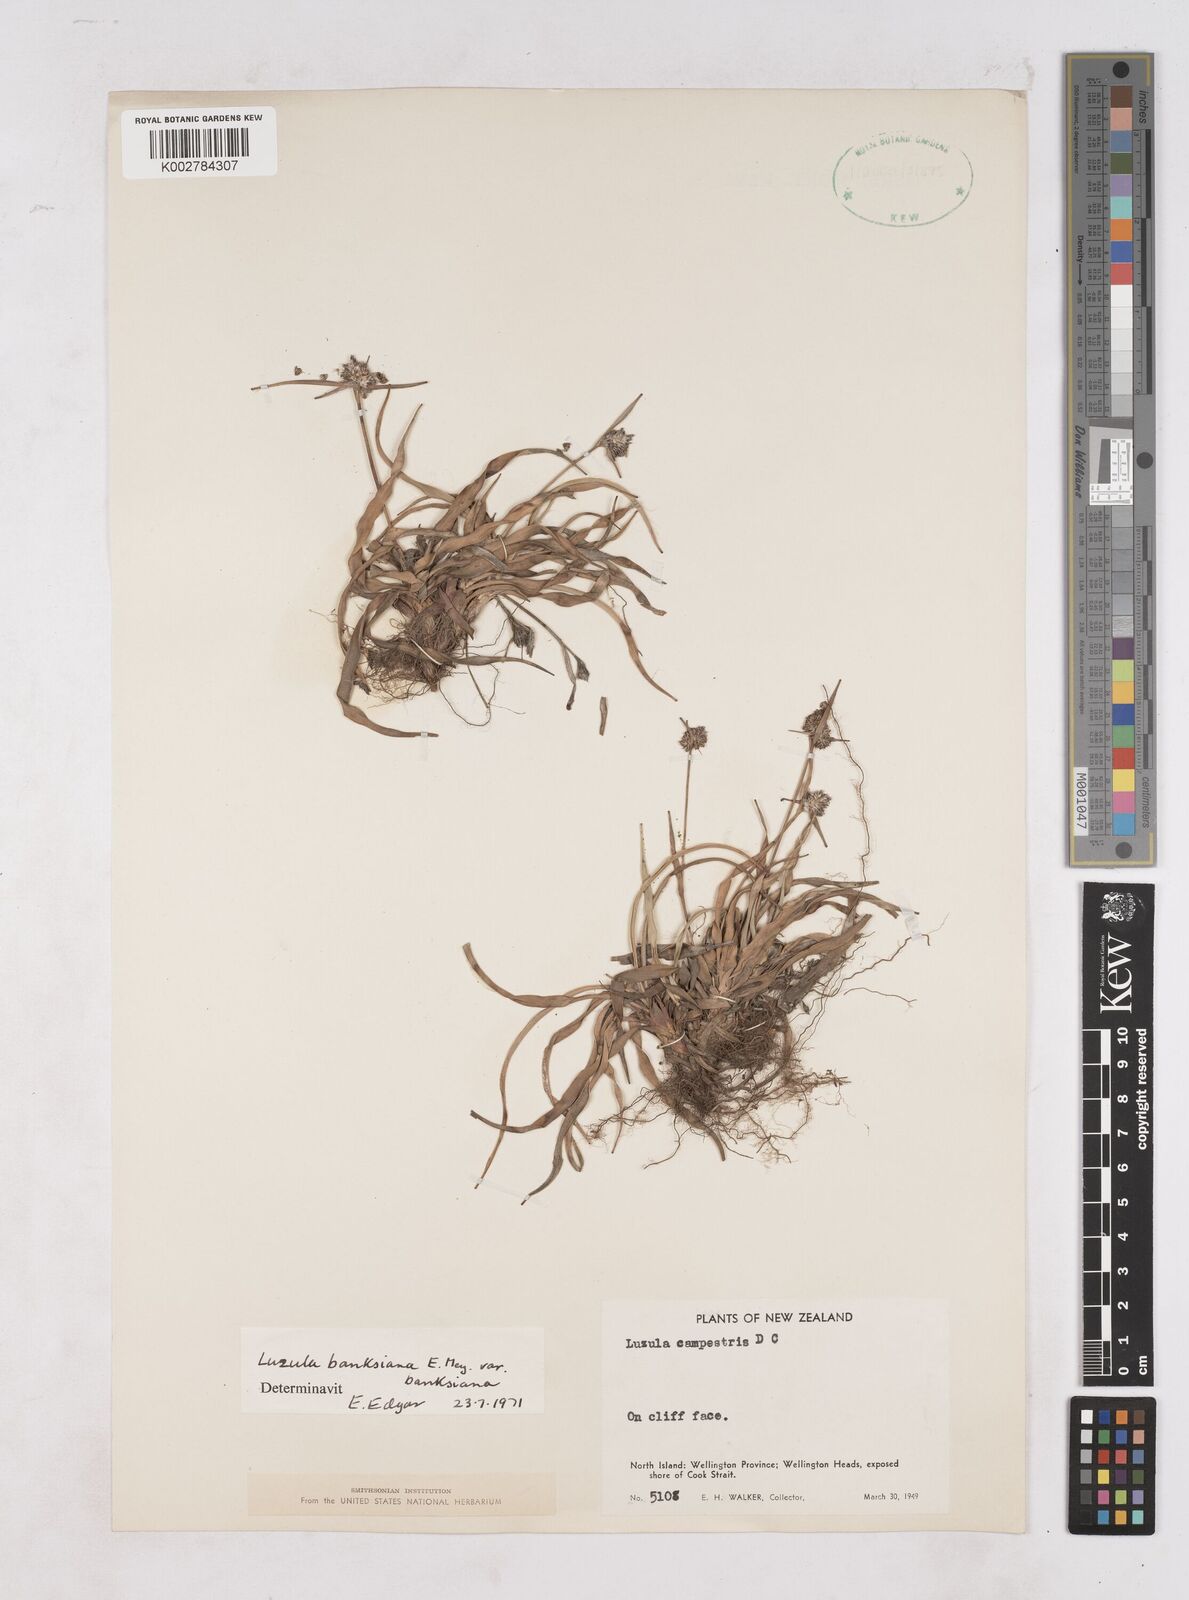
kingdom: Plantae
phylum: Tracheophyta
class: Liliopsida
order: Poales
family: Juncaceae
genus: Luzula
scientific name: Luzula banksiana
